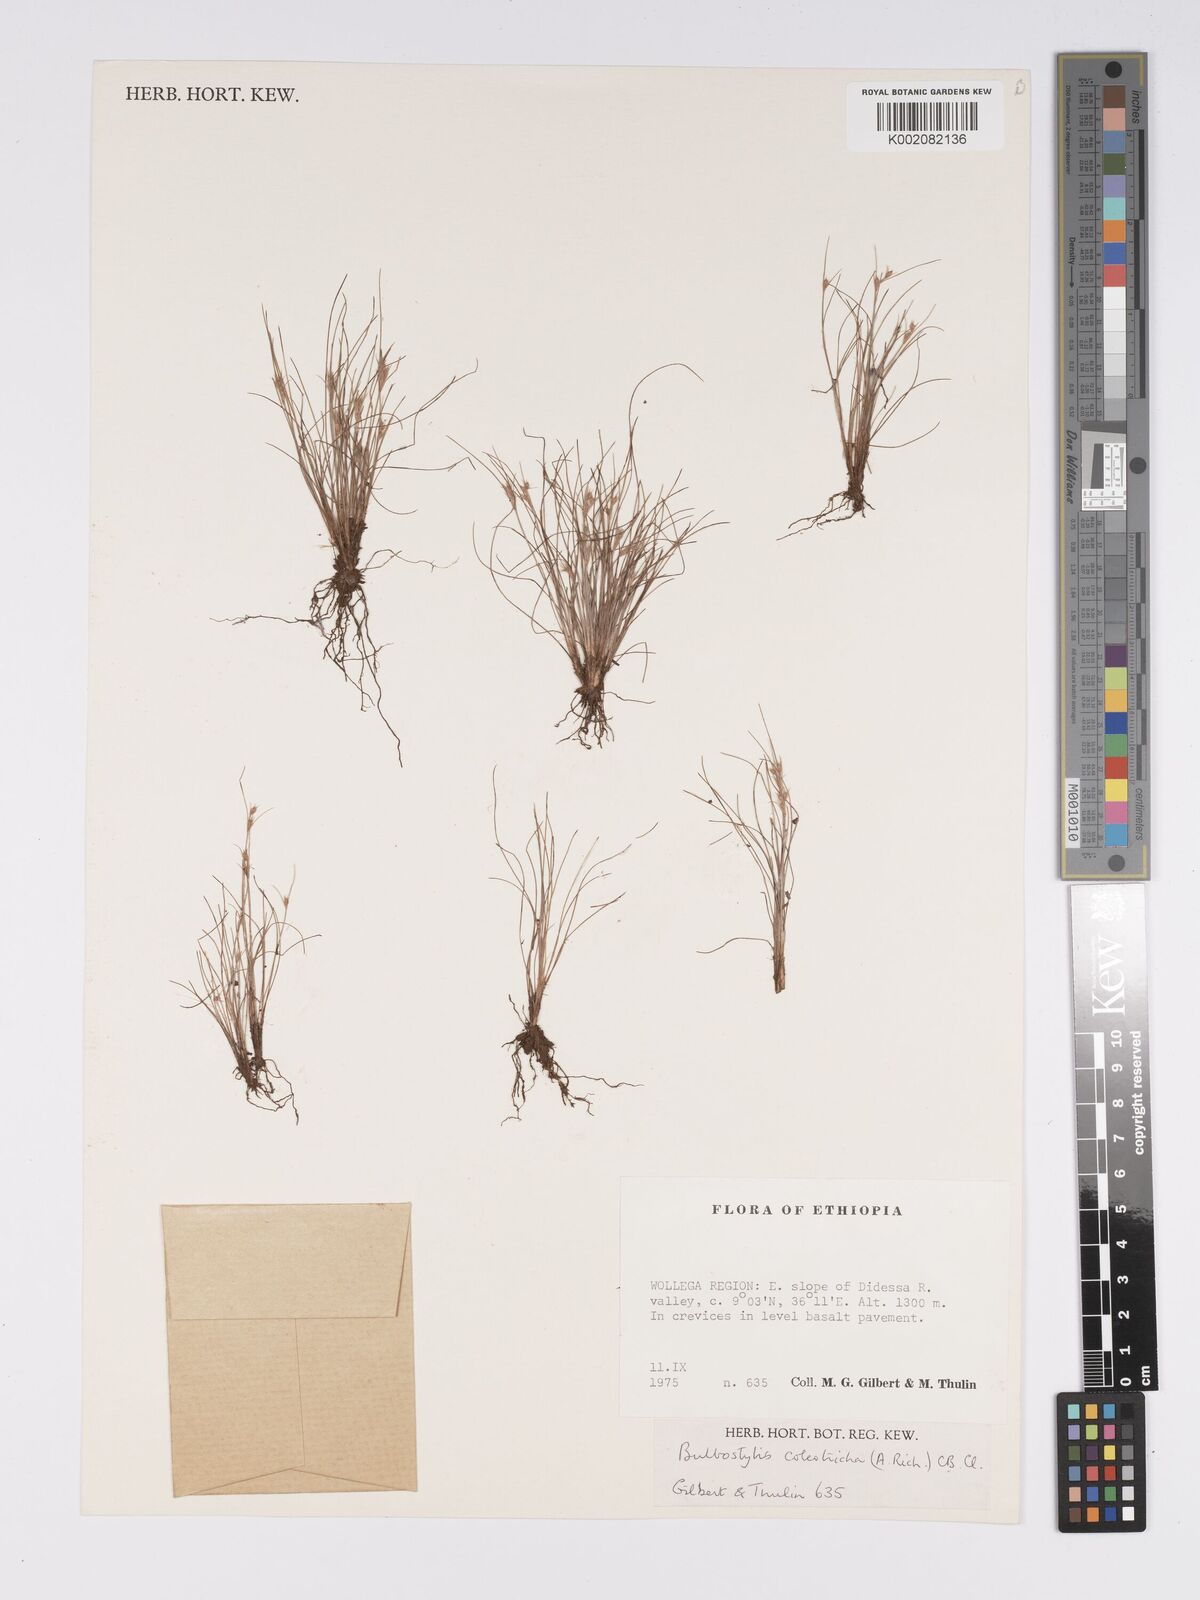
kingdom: Plantae
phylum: Tracheophyta
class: Liliopsida
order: Poales
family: Cyperaceae
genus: Bulbostylis
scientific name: Bulbostylis coleotricha
